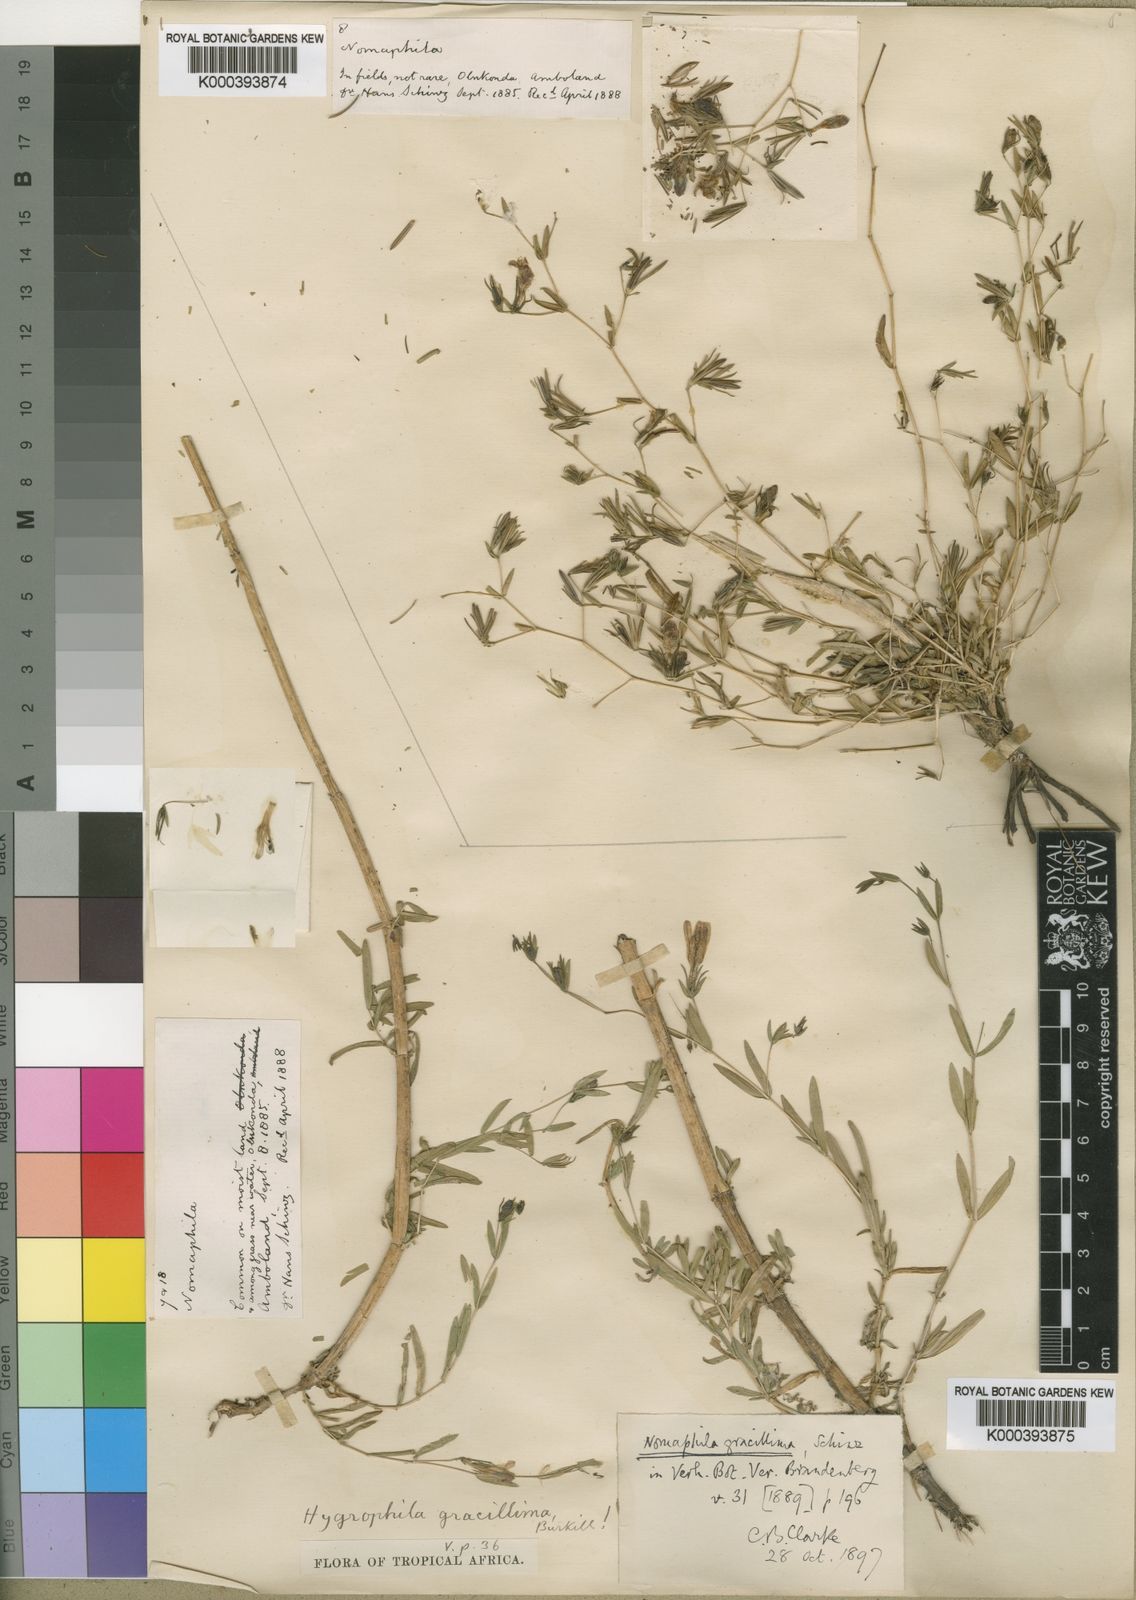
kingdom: Plantae
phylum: Tracheophyta
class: Magnoliopsida
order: Lamiales
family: Acanthaceae
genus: Hygrophila
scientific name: Hygrophila gracillima
